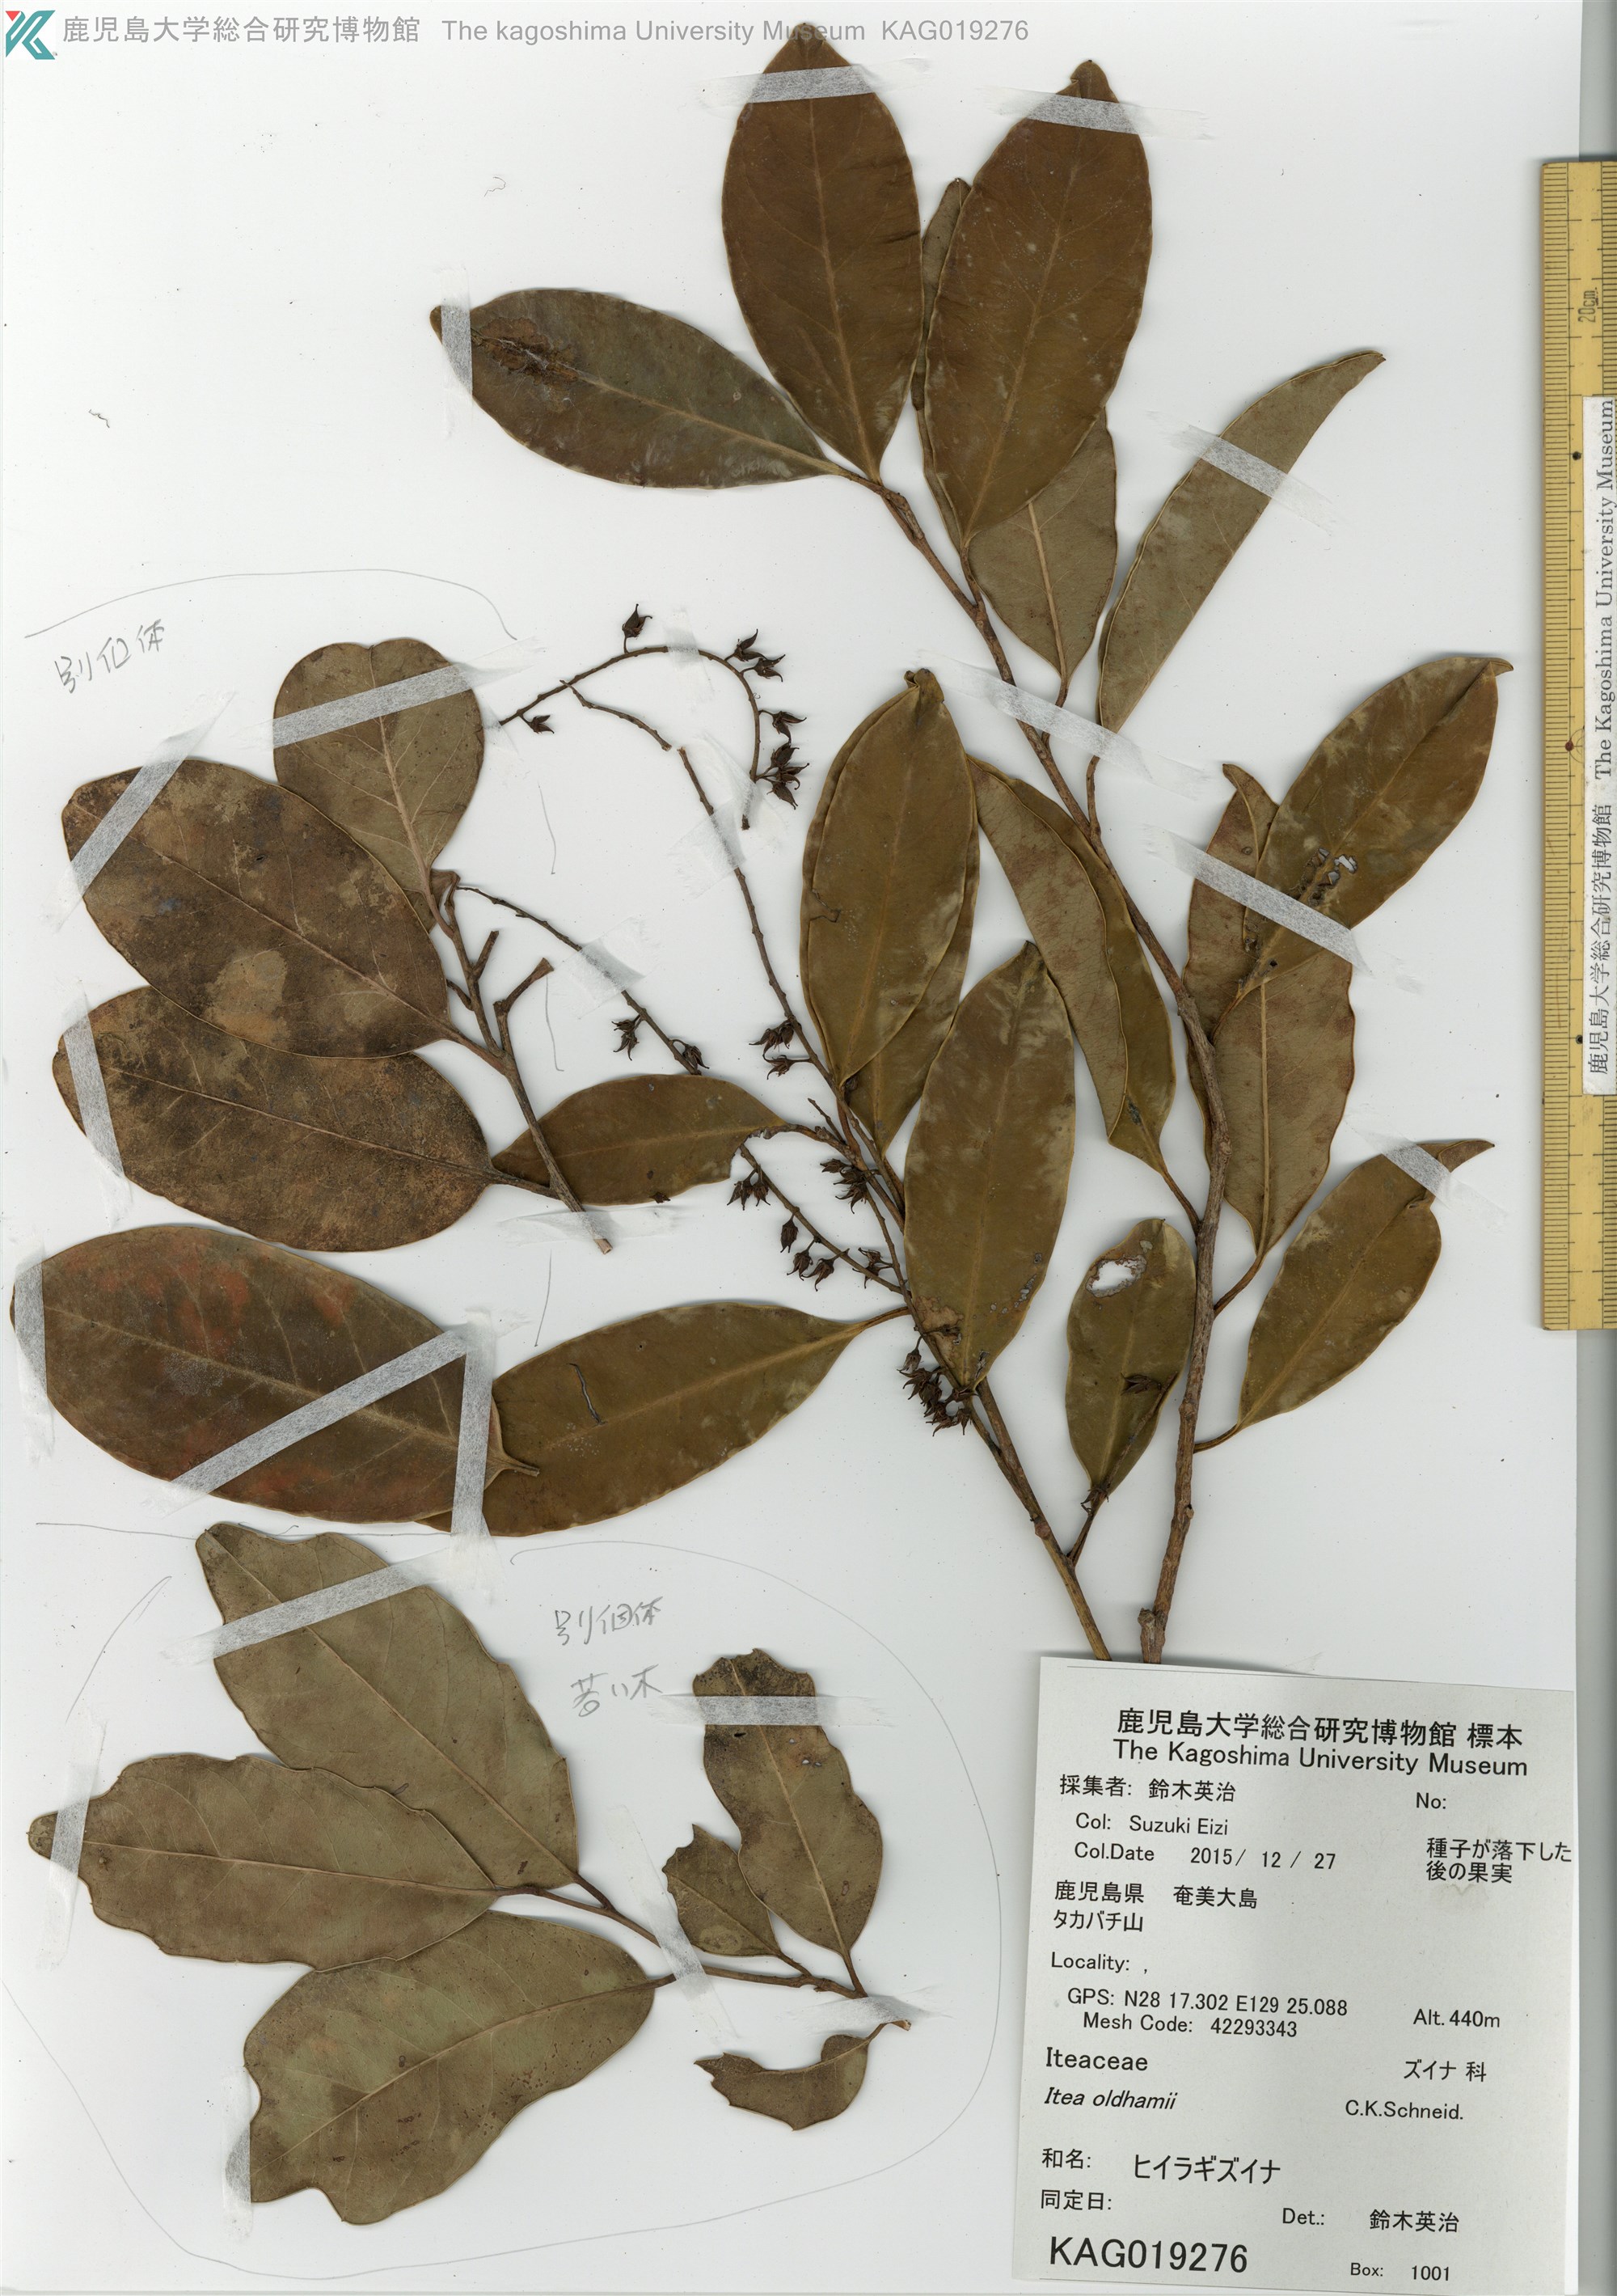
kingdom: Plantae
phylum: Tracheophyta
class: Magnoliopsida
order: Saxifragales
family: Iteaceae
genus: Itea
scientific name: Itea oldhamii
